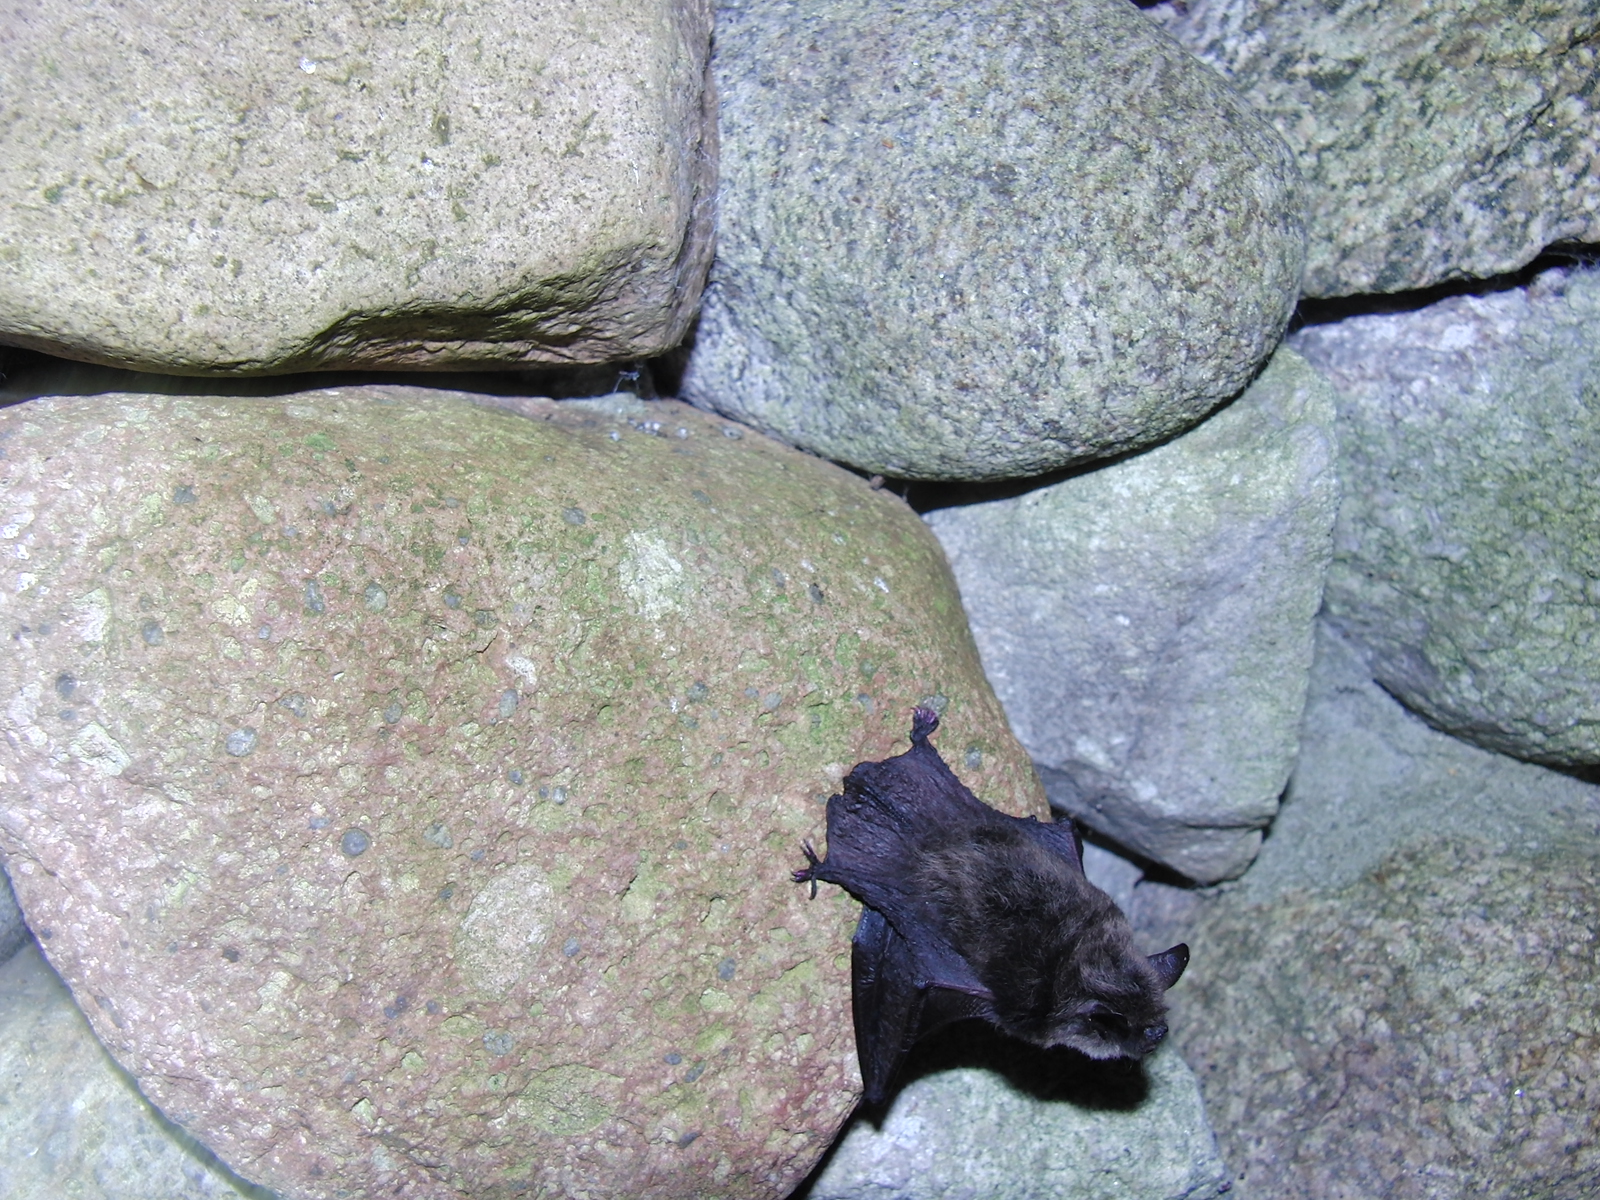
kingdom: Animalia
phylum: Chordata
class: Mammalia
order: Chiroptera
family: Vespertilionidae
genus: Myotis
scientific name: Myotis
